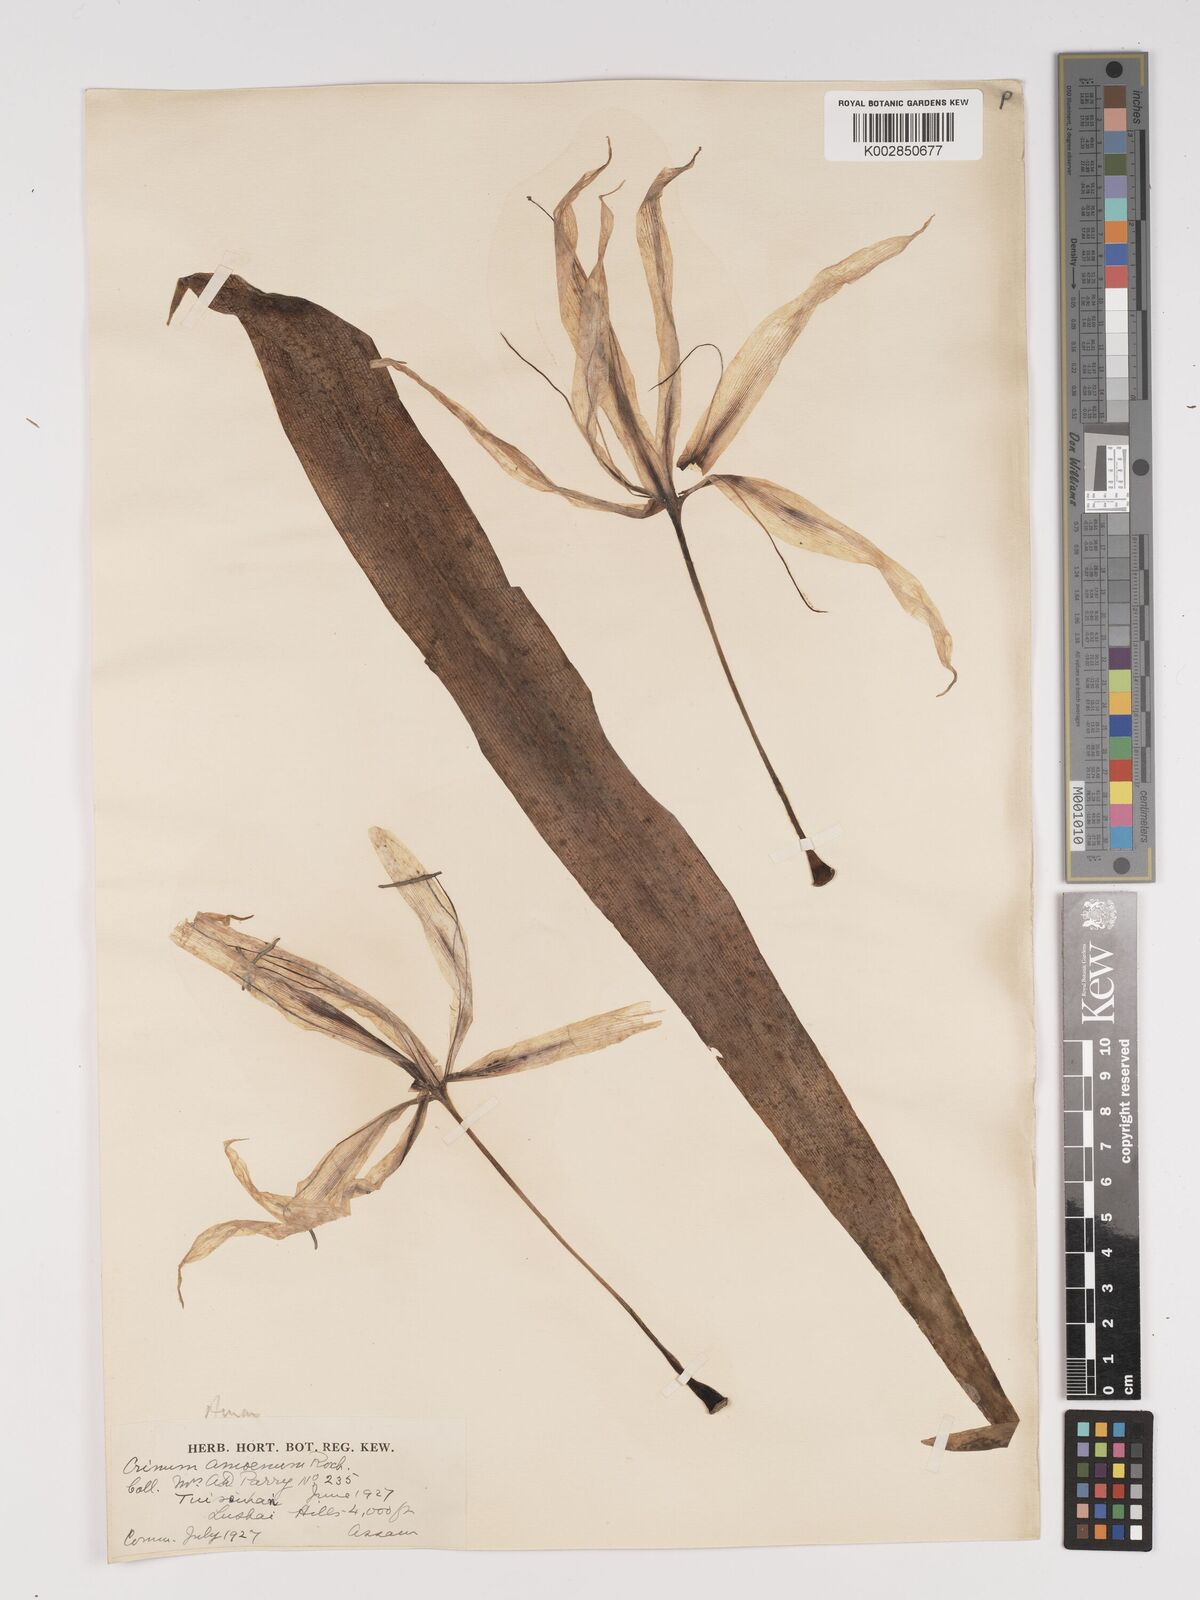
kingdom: Plantae
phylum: Tracheophyta
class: Liliopsida
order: Asparagales
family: Amaryllidaceae
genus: Crinum
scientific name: Crinum amoenum
